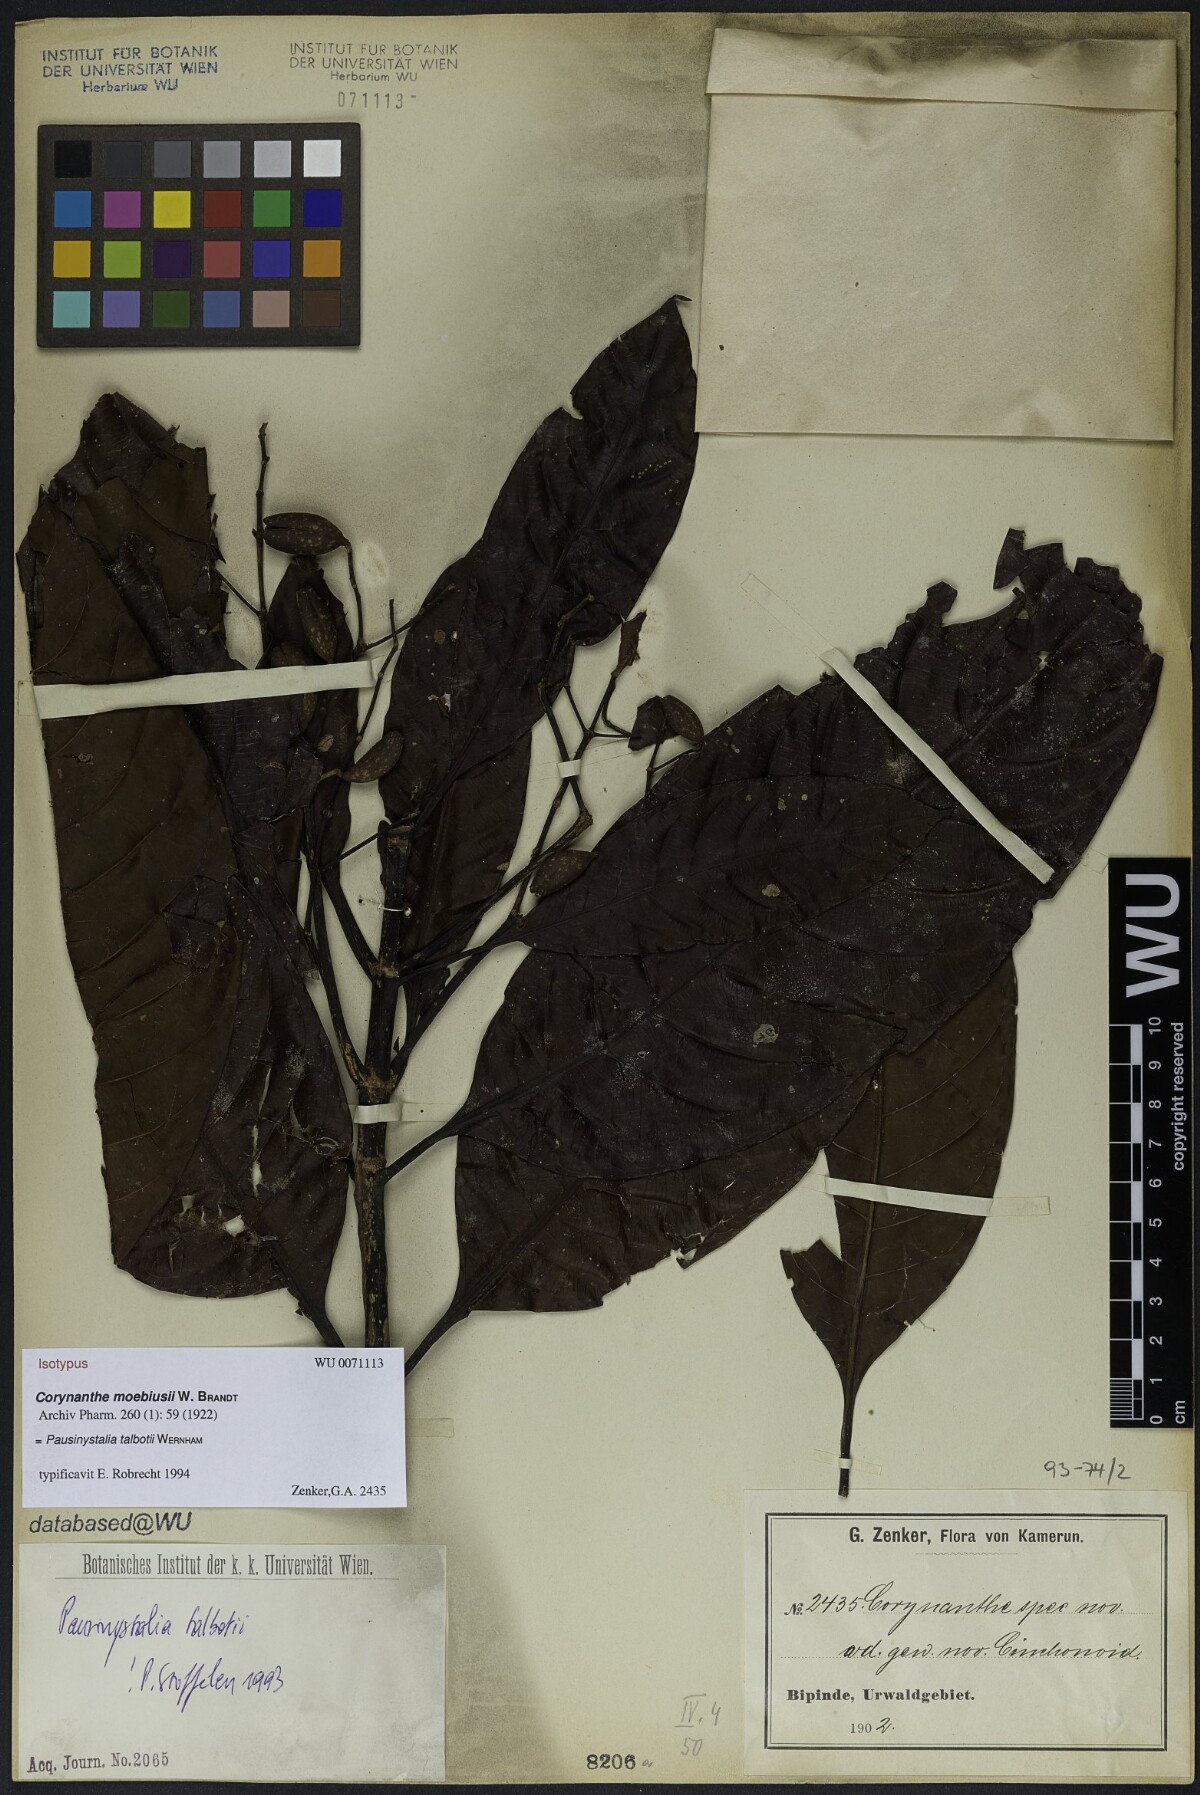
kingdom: Plantae
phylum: Tracheophyta
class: Magnoliopsida
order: Gentianales
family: Rubiaceae
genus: Corynanthe
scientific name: Corynanthe
